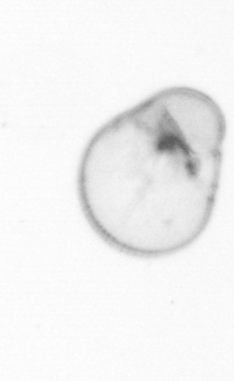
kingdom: Chromista
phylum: Myzozoa
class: Dinophyceae
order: Noctilucales
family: Noctilucaceae
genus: Noctiluca
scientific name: Noctiluca scintillans
